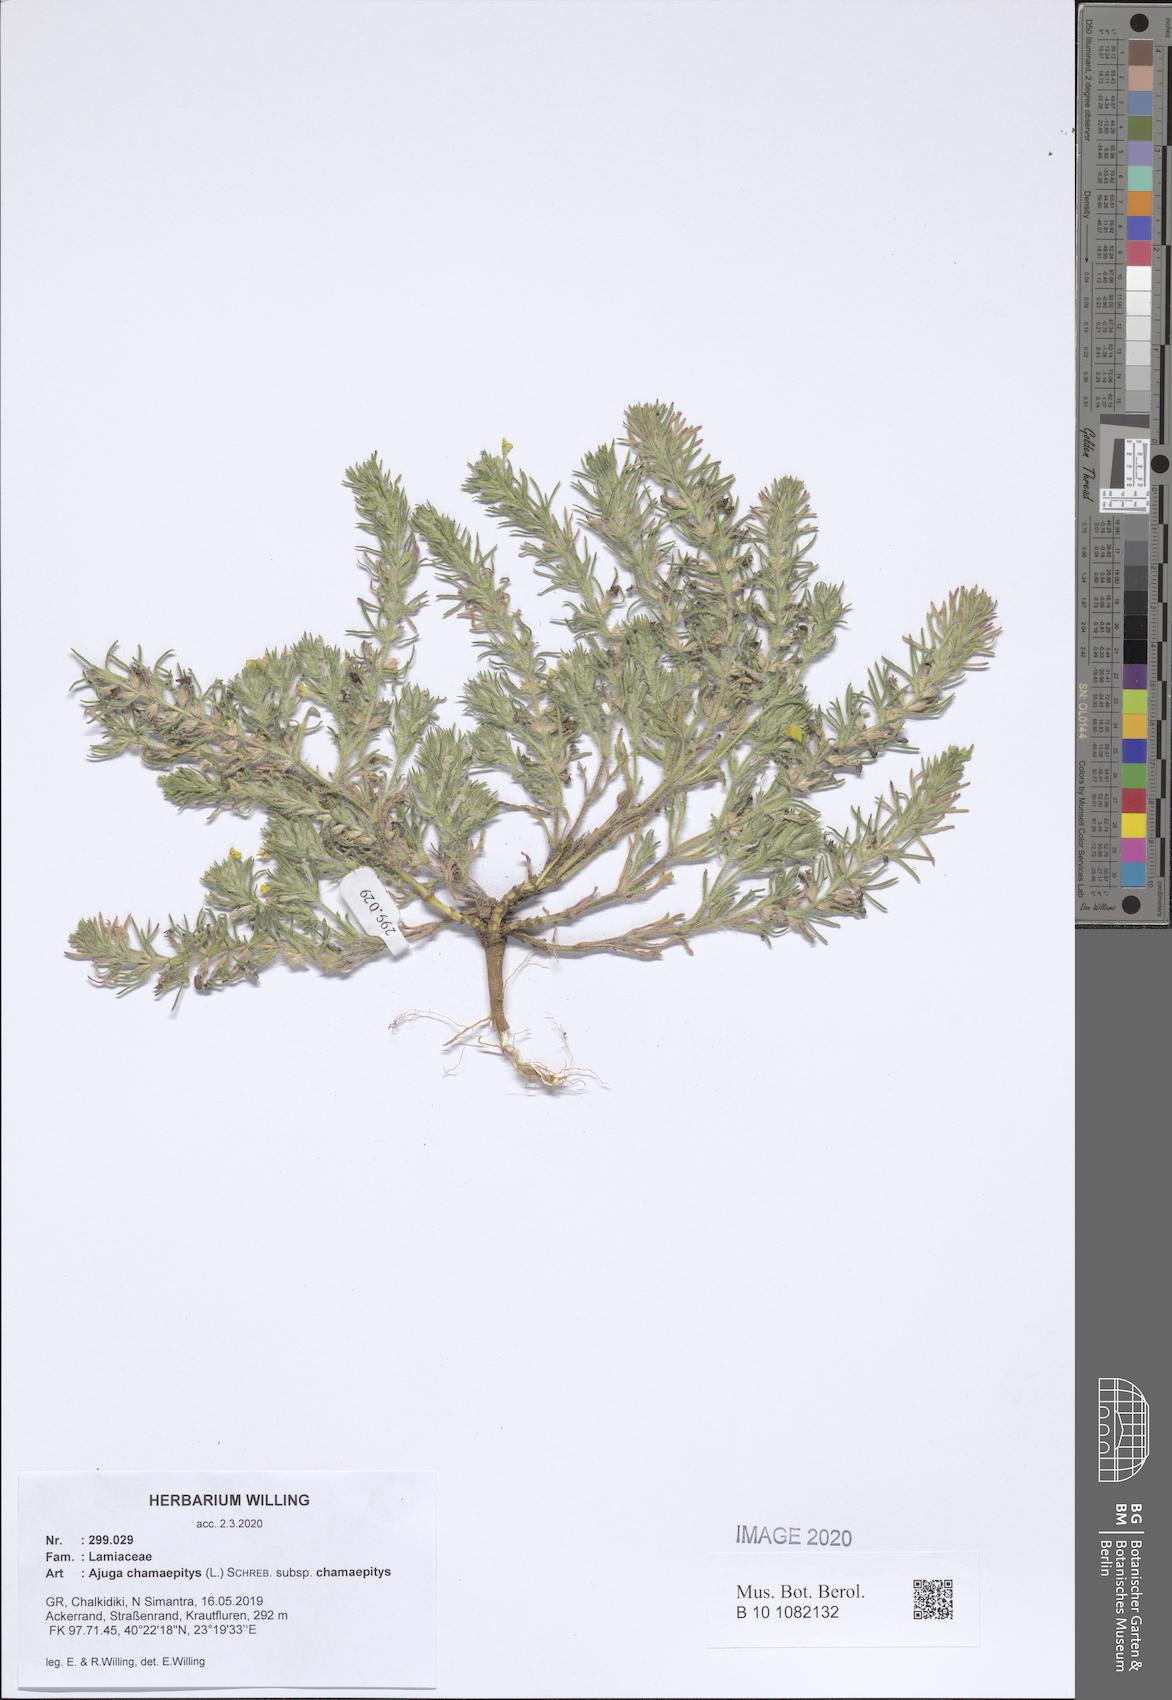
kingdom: Plantae
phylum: Tracheophyta
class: Magnoliopsida
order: Lamiales
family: Lamiaceae
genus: Ajuga
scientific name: Ajuga chamaepitys
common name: Ground-pine
